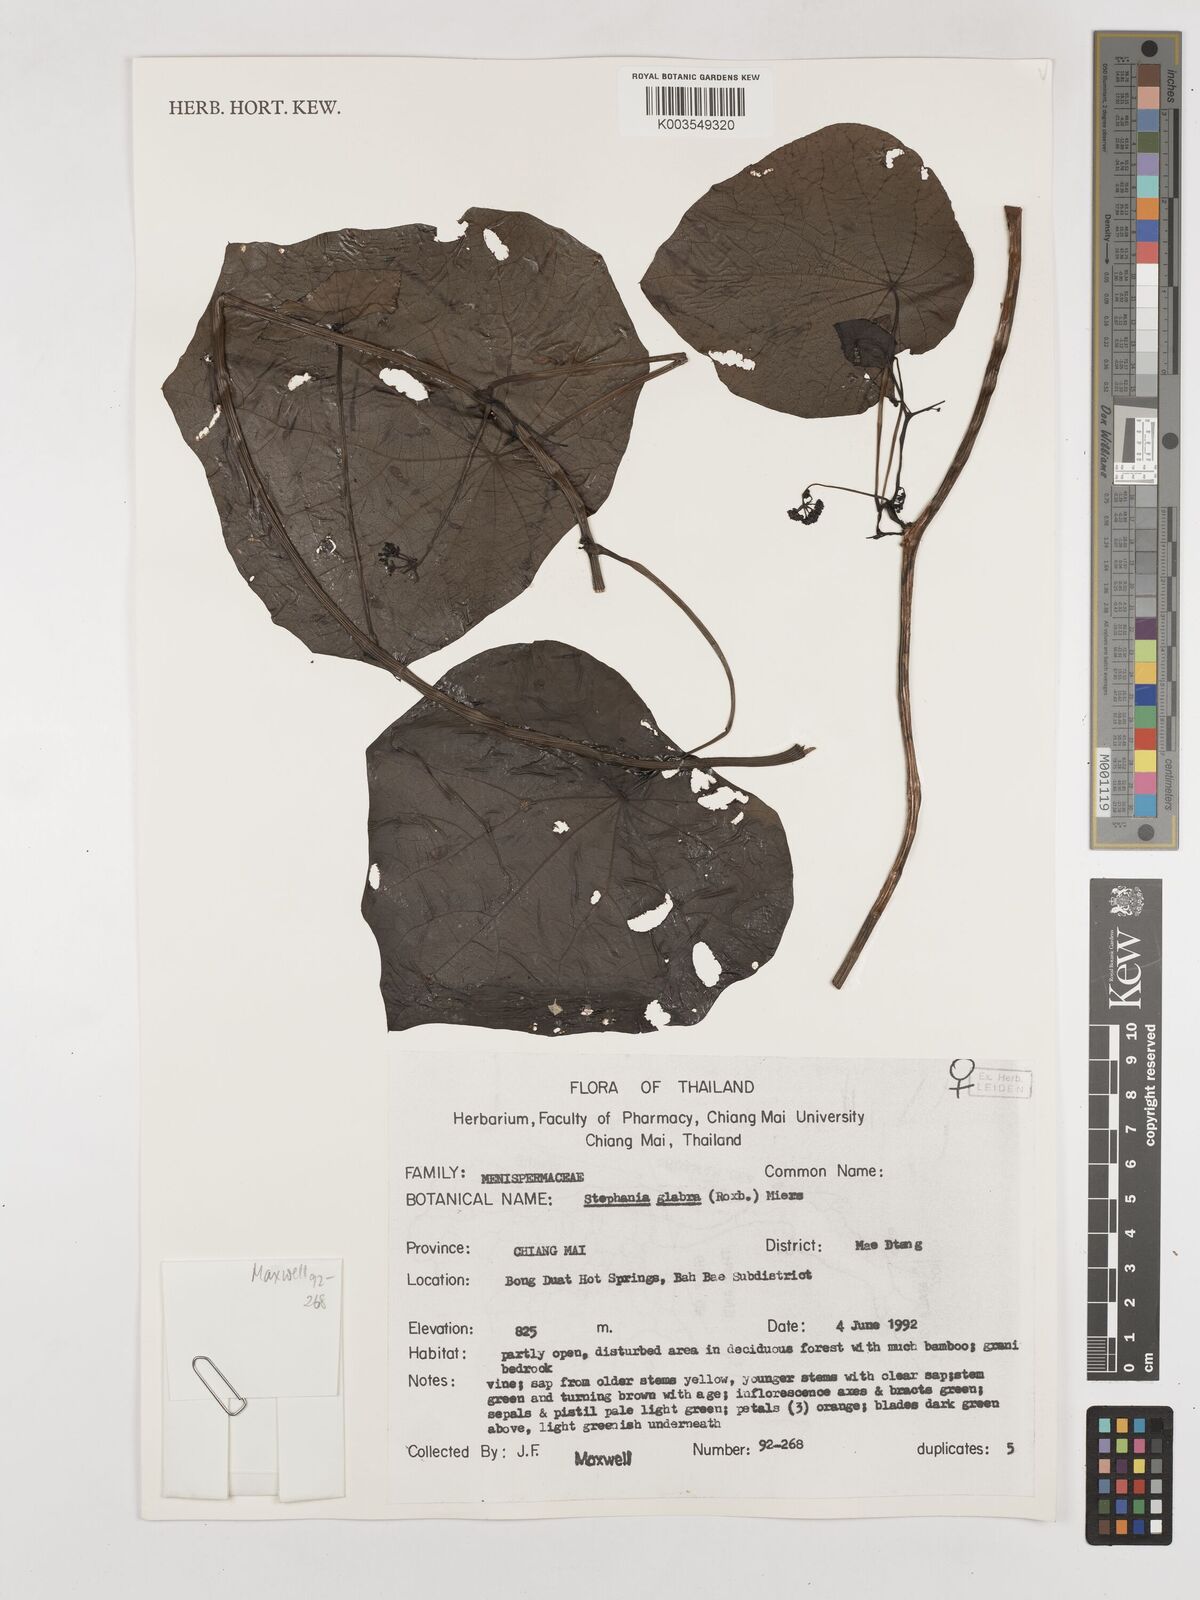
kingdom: Plantae
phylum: Tracheophyta
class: Magnoliopsida
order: Ranunculales
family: Menispermaceae
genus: Stephania
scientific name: Stephania rotunda
